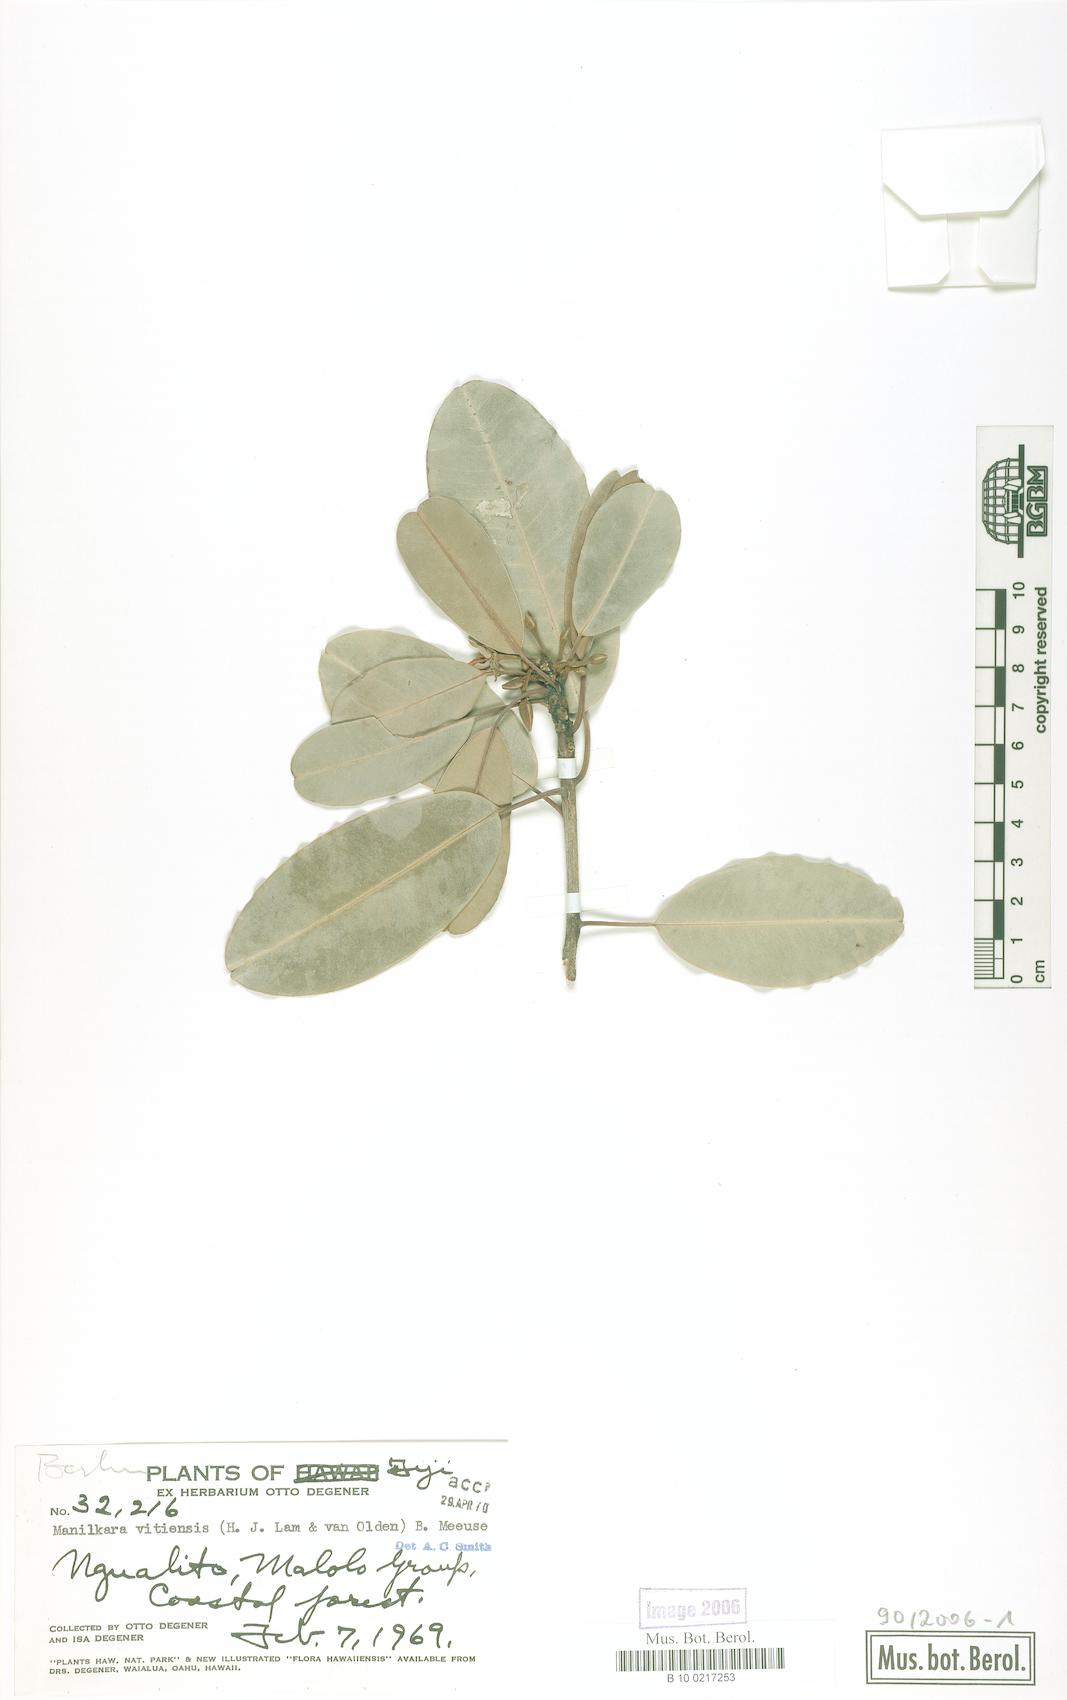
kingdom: Plantae
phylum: Tracheophyta
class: Magnoliopsida
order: Ericales
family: Sapotaceae
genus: Manilkara
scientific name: Manilkara vitiensis
